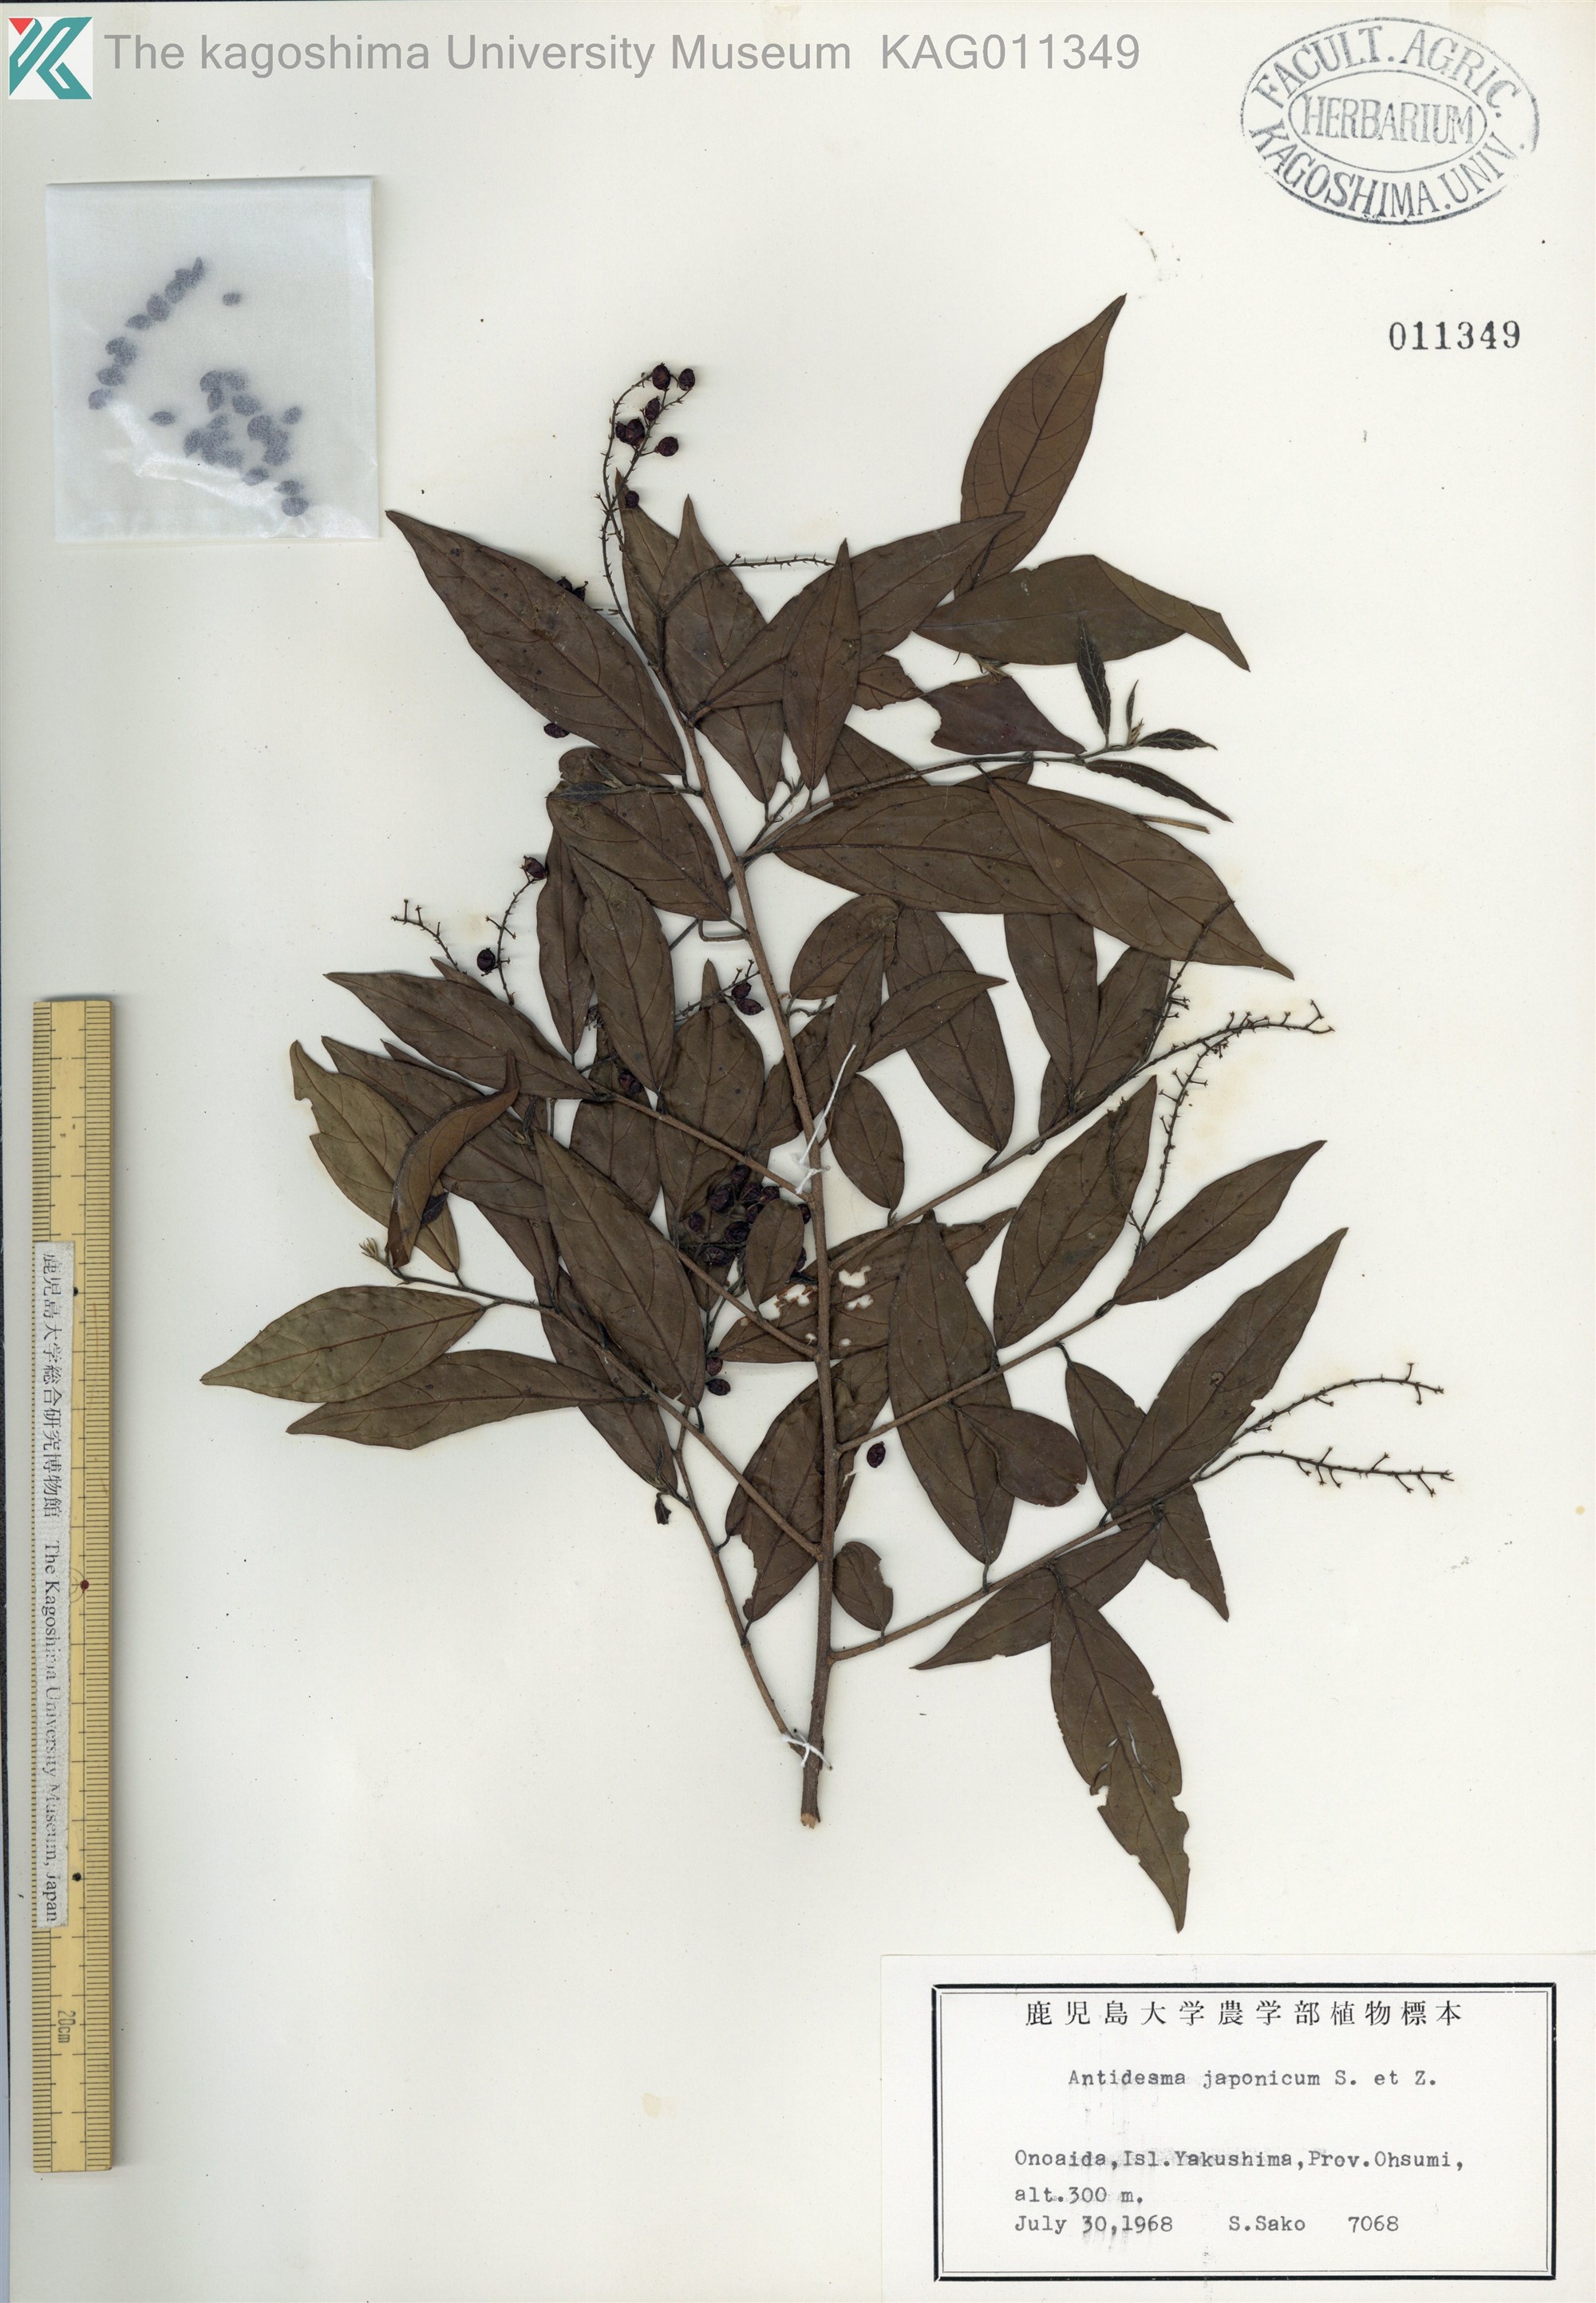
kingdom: Plantae
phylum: Tracheophyta
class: Magnoliopsida
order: Malpighiales
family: Phyllanthaceae
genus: Antidesma
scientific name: Antidesma japonicum
